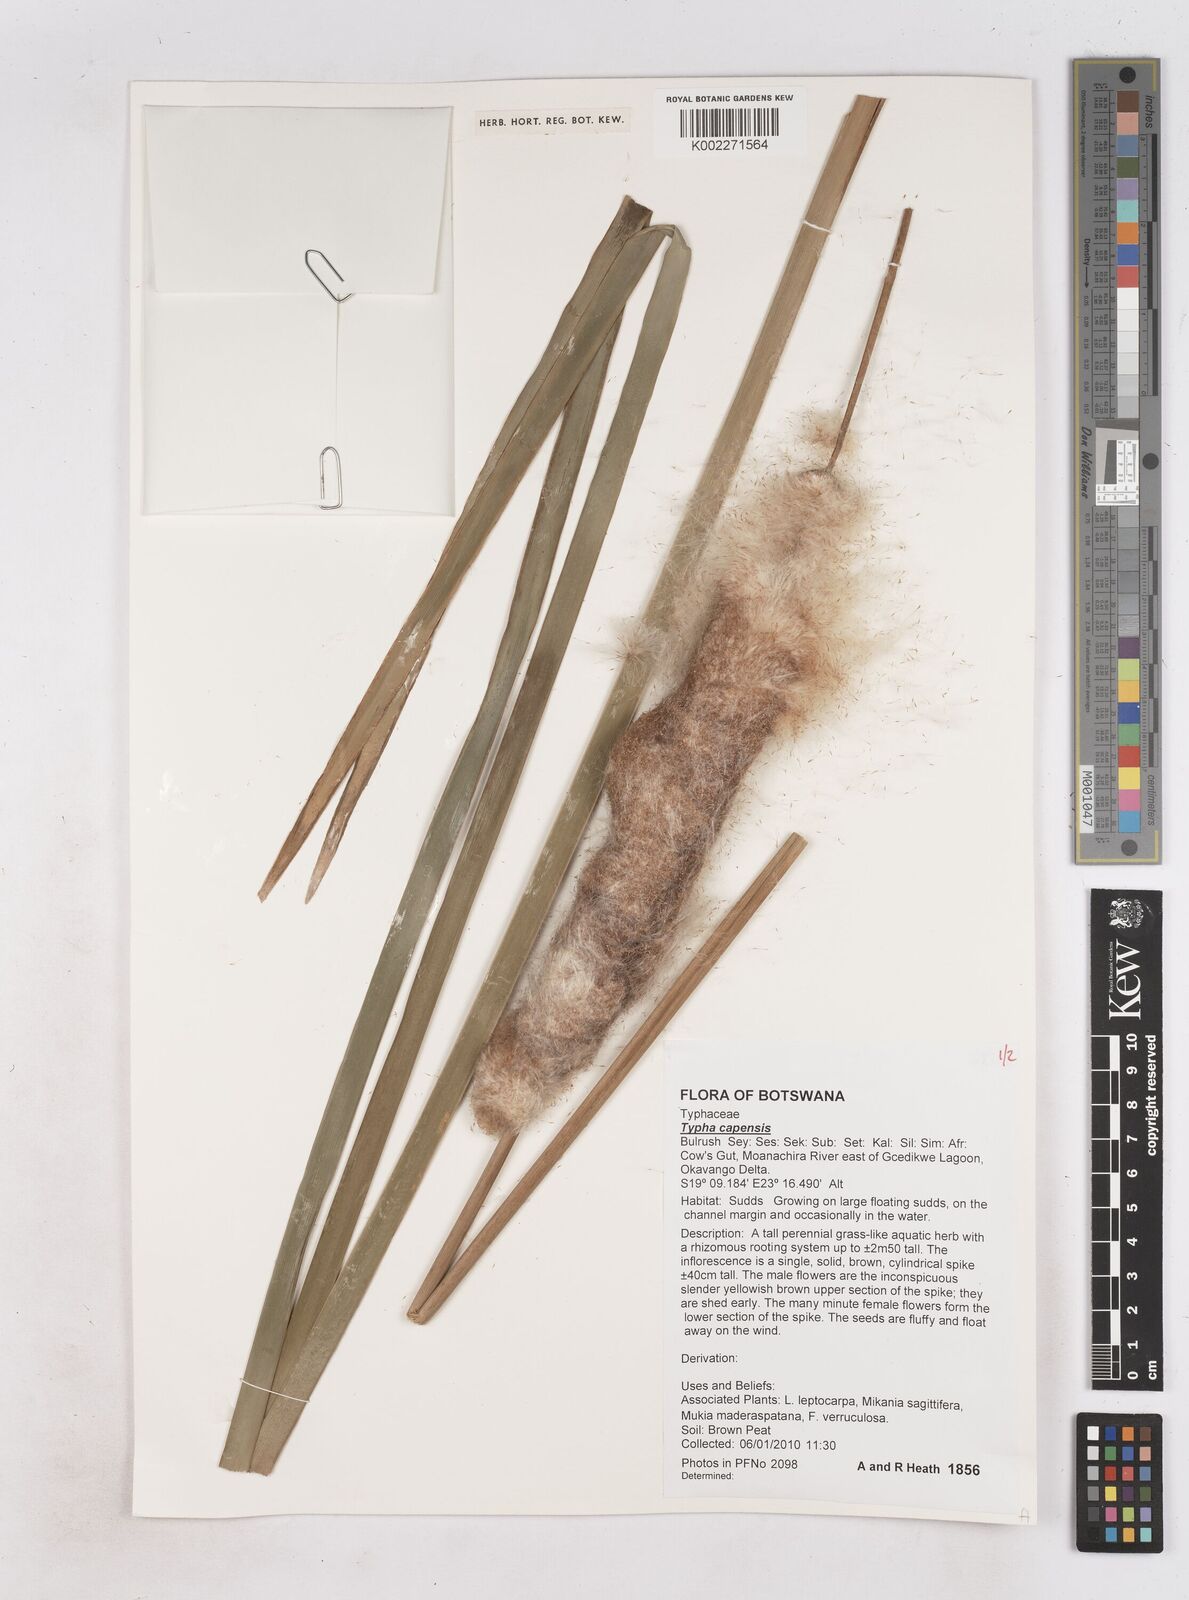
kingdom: Plantae
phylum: Tracheophyta
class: Liliopsida
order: Poales
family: Typhaceae
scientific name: Typhaceae
